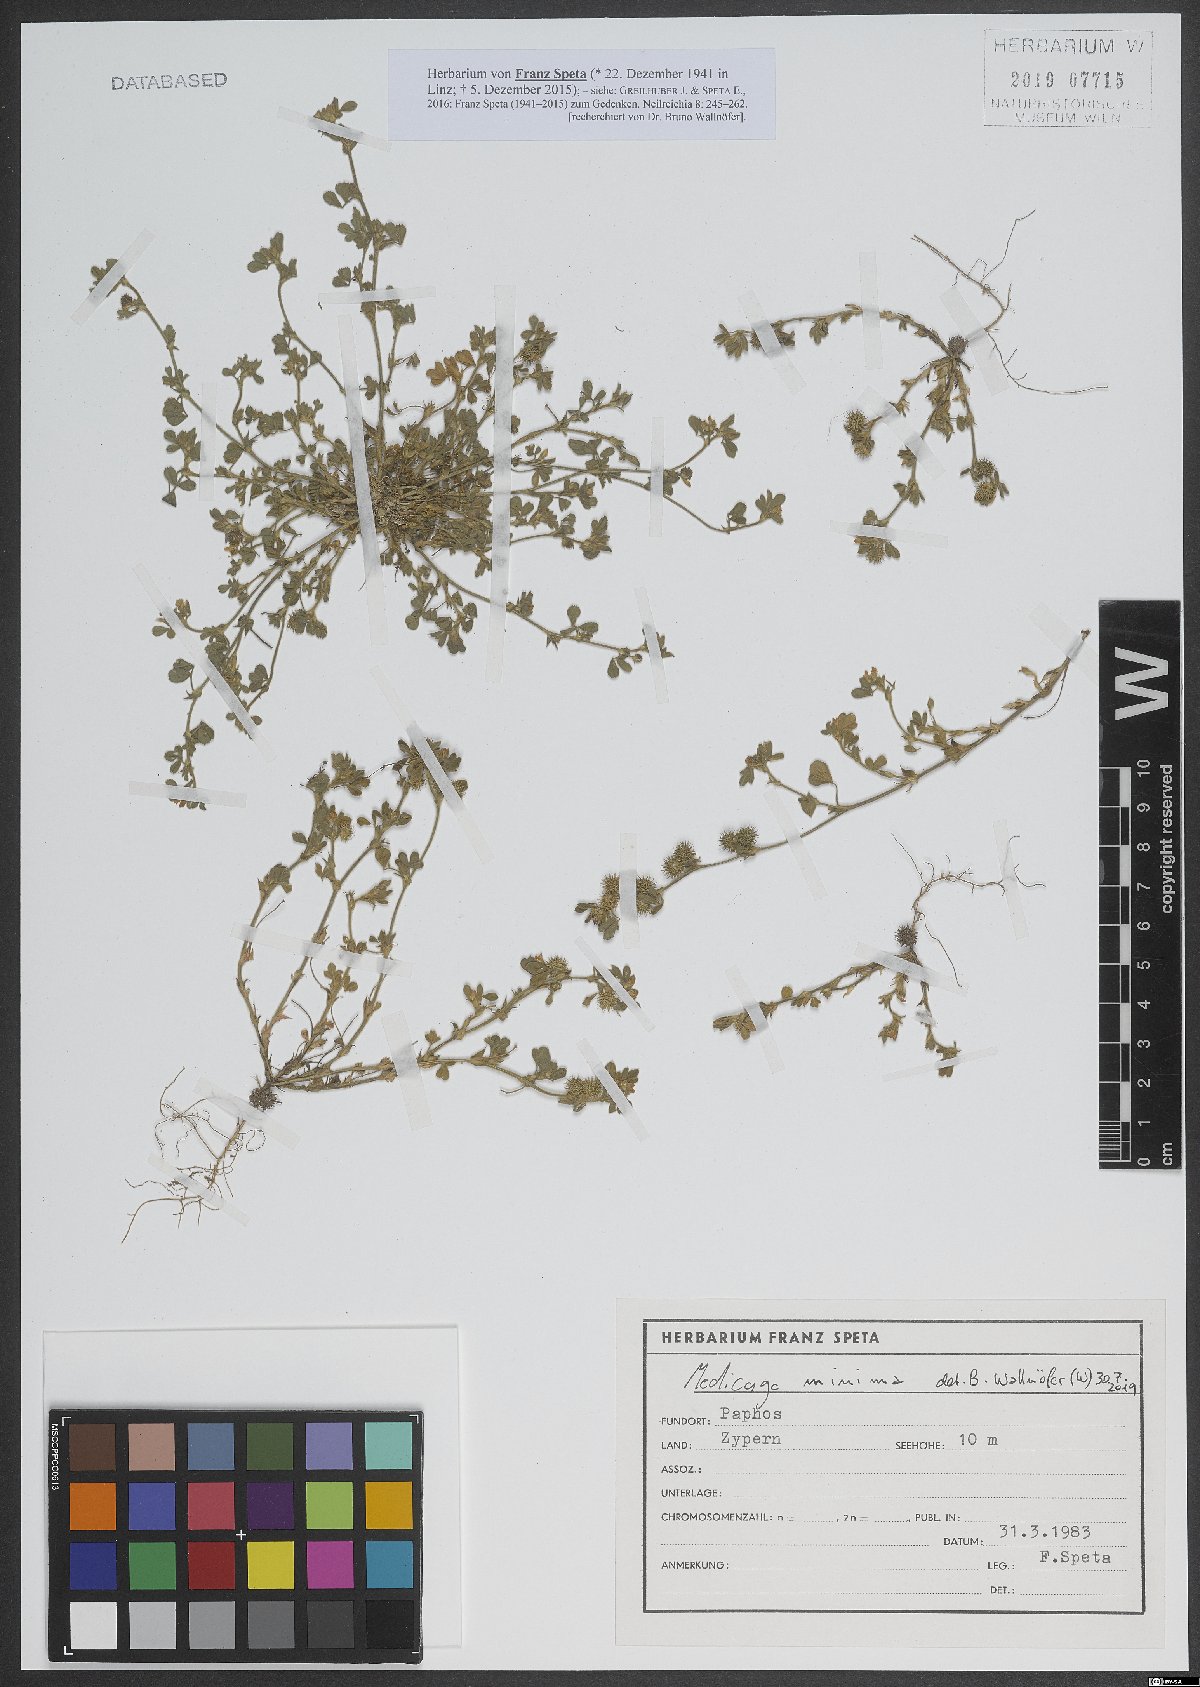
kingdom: Plantae
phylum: Tracheophyta
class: Magnoliopsida
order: Fabales
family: Fabaceae
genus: Medicago
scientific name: Medicago minima
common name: Little bur-clover
